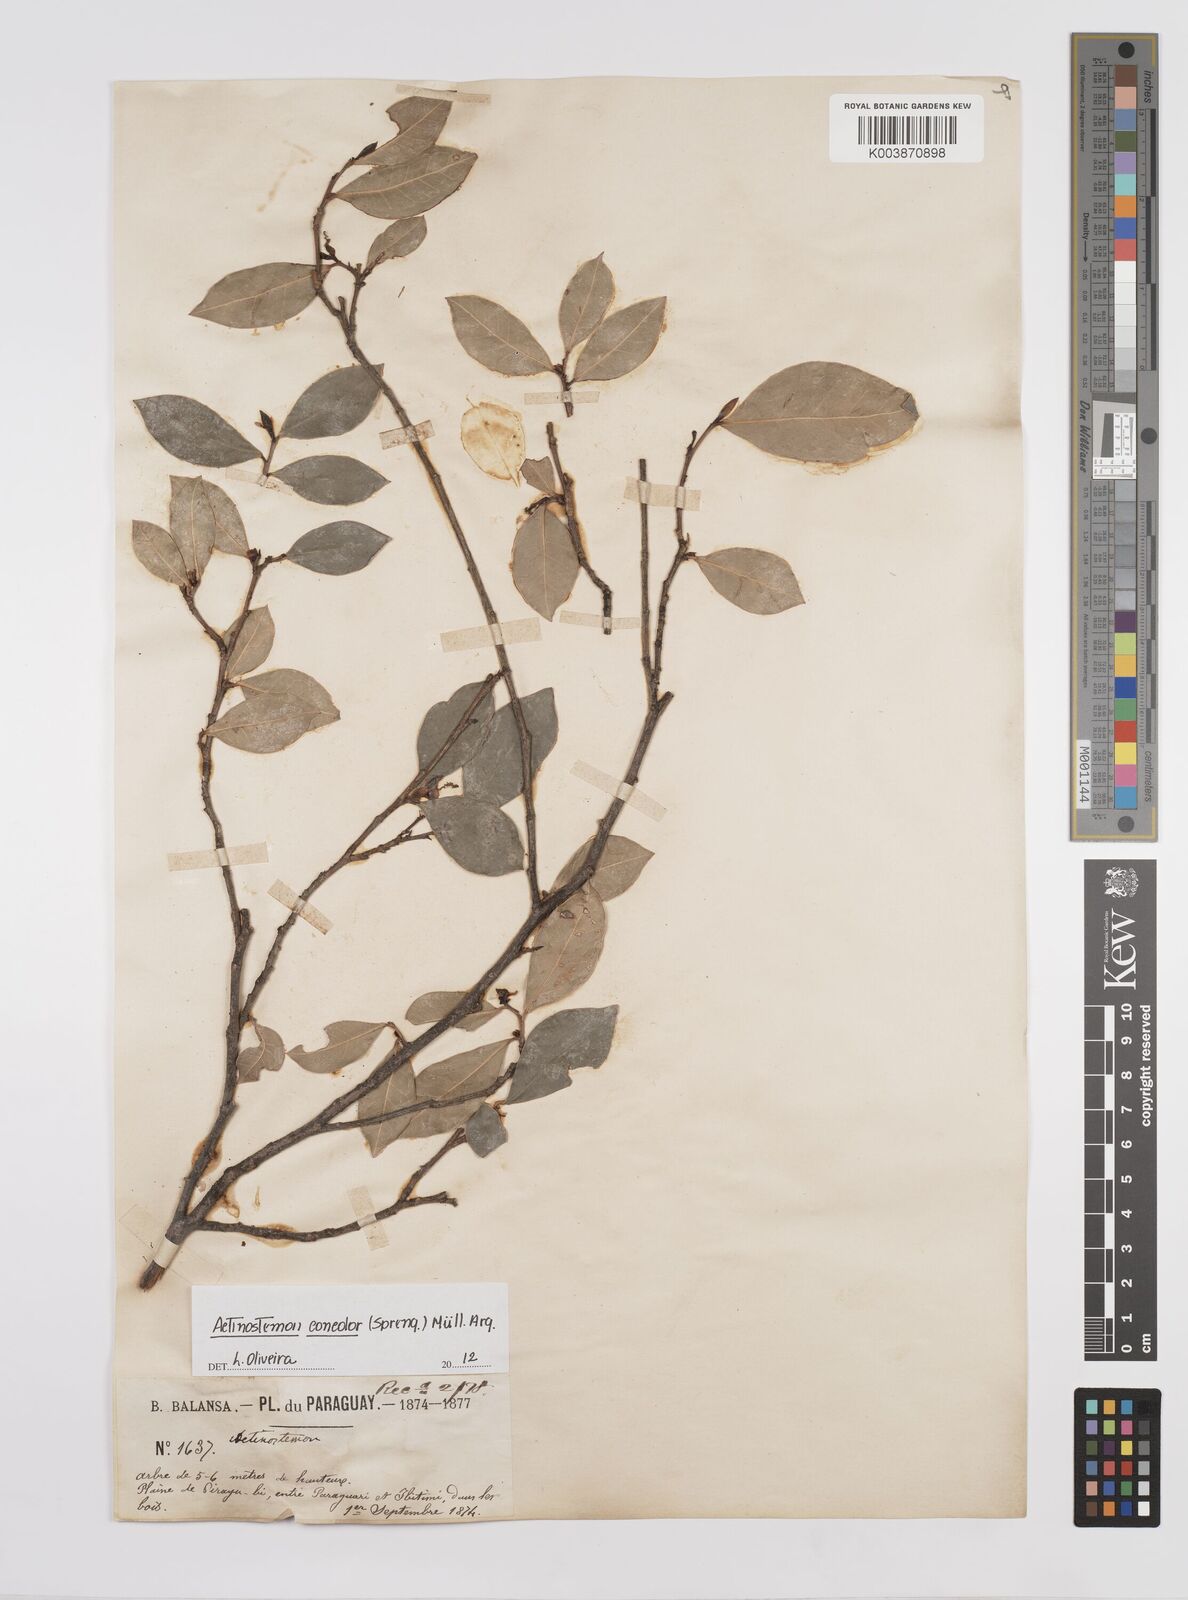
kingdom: Plantae
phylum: Tracheophyta
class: Magnoliopsida
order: Malpighiales
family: Euphorbiaceae
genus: Actinostemon
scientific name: Actinostemon concolor
